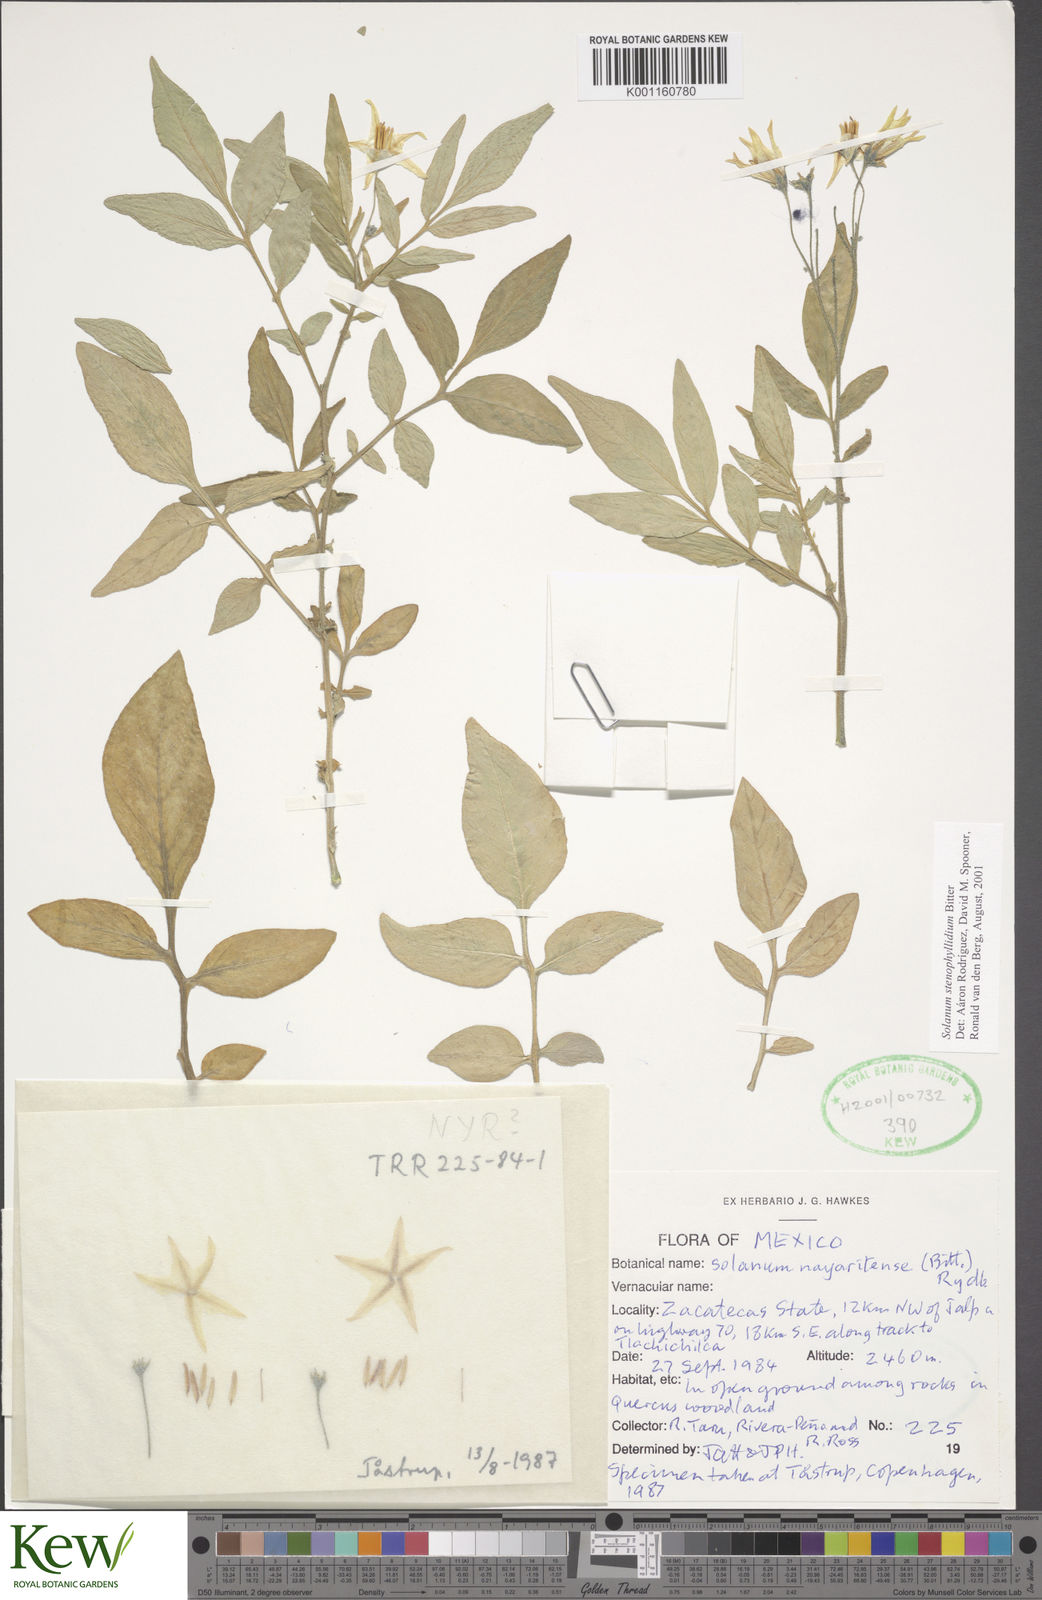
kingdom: Plantae
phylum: Tracheophyta
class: Magnoliopsida
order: Solanales
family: Solanaceae
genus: Solanum
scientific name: Solanum stenophyllidium
